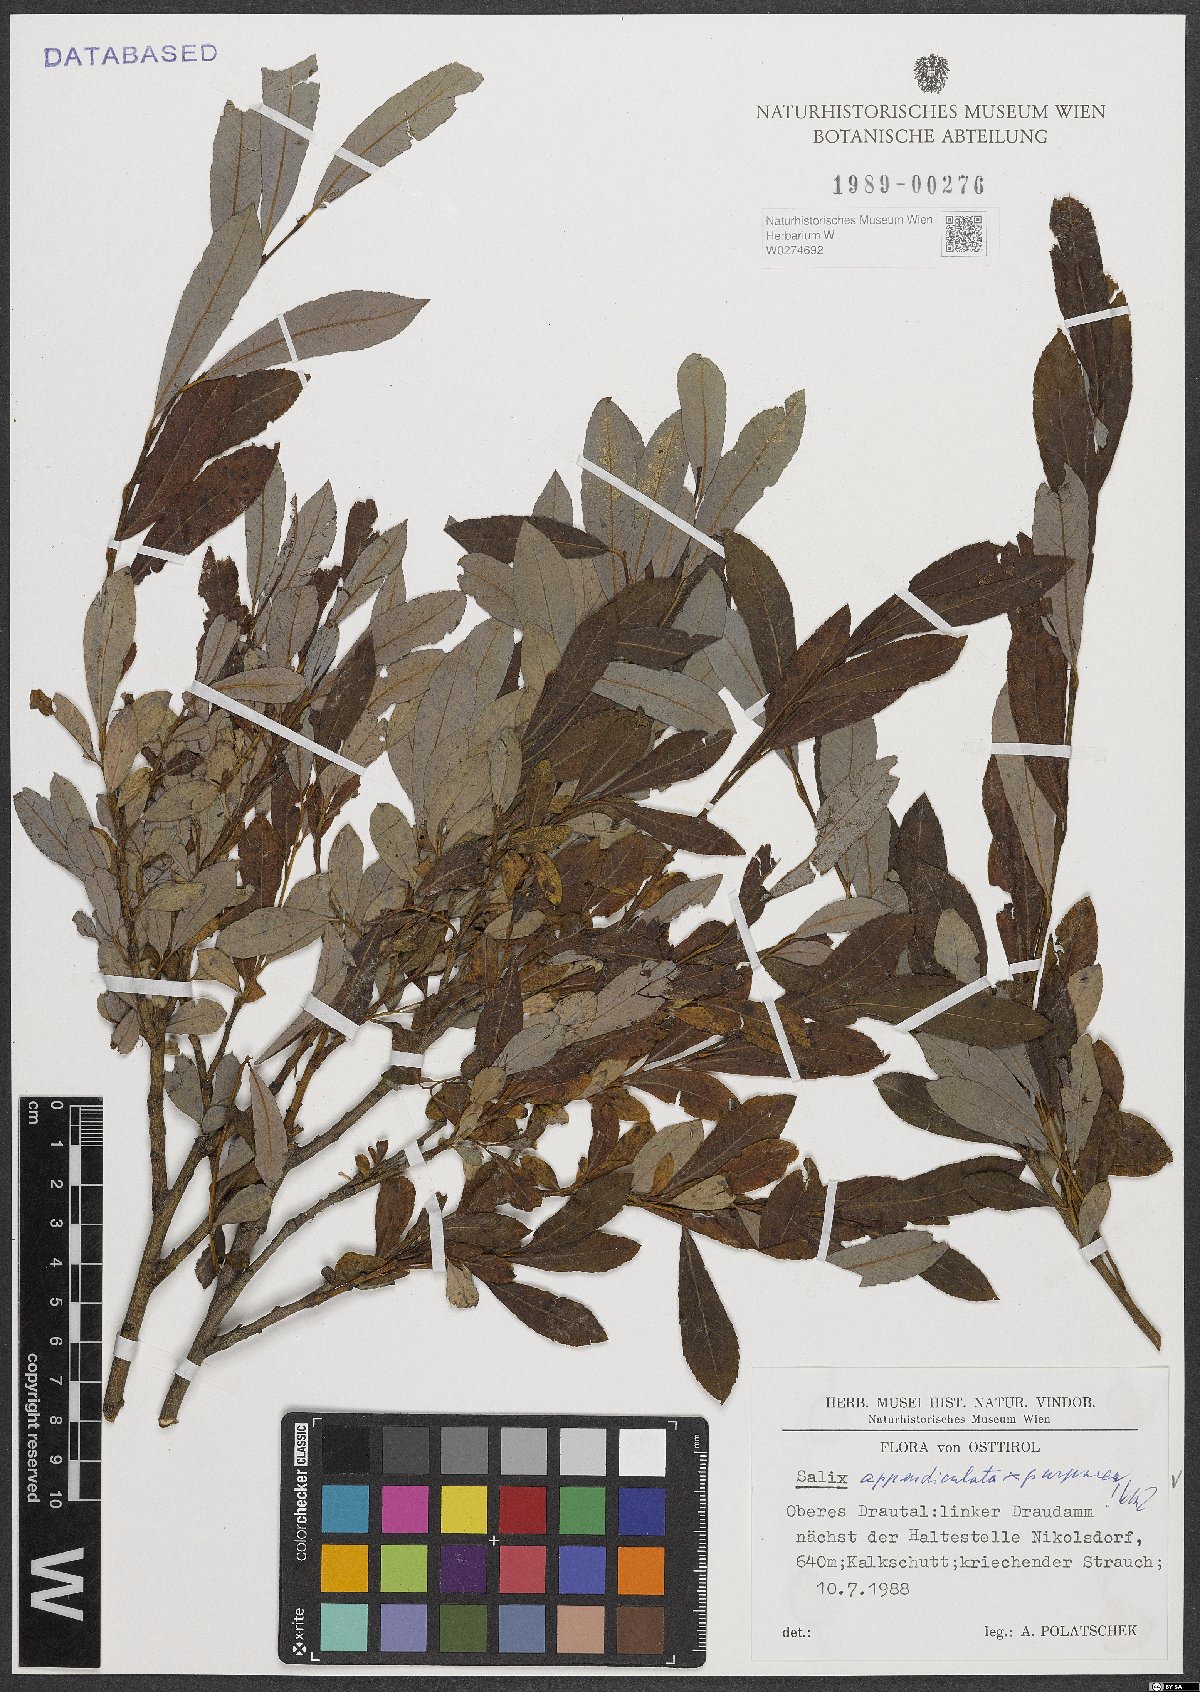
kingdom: Plantae
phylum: Tracheophyta
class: Magnoliopsida
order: Malpighiales
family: Salicaceae
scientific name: Salicaceae
